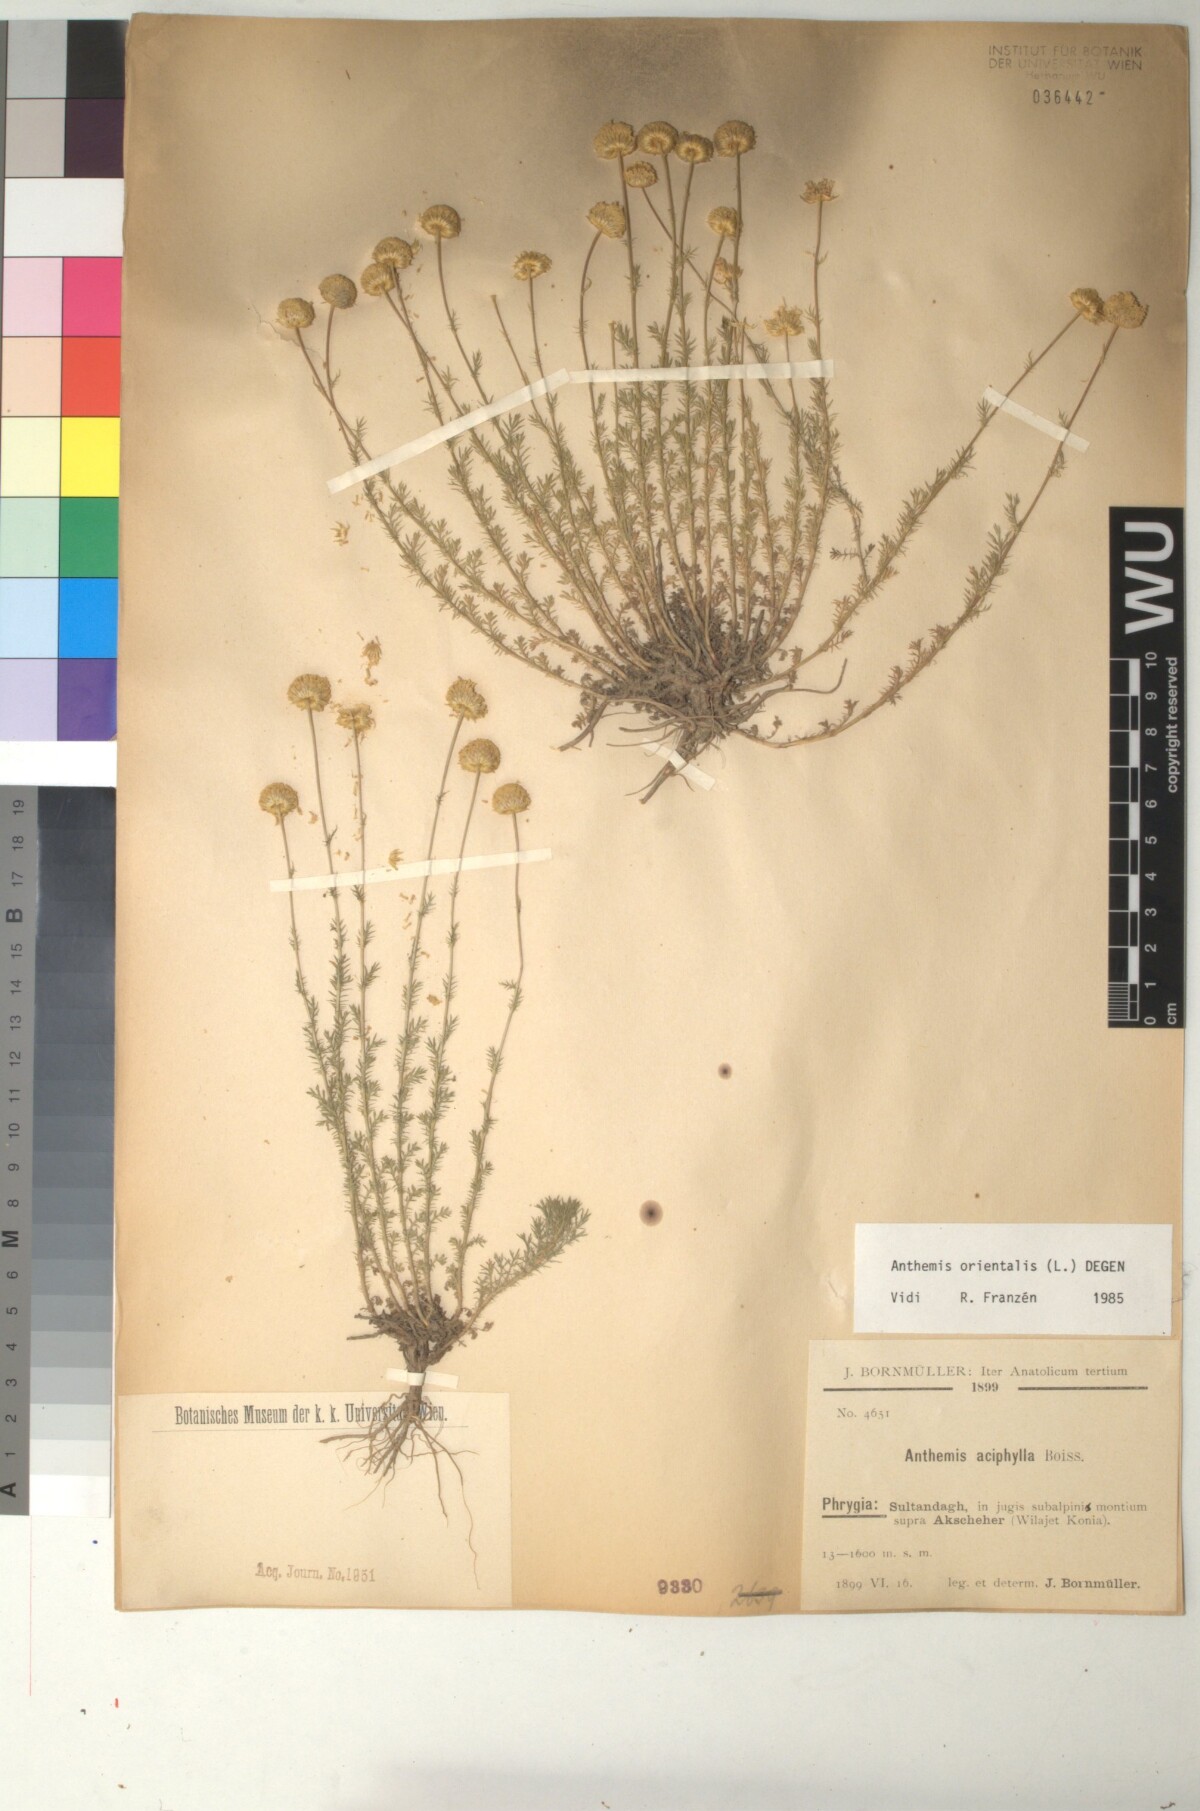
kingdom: Plantae
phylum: Tracheophyta
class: Magnoliopsida
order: Asterales
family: Asteraceae
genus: Anthemis
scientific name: Anthemis orientalis
